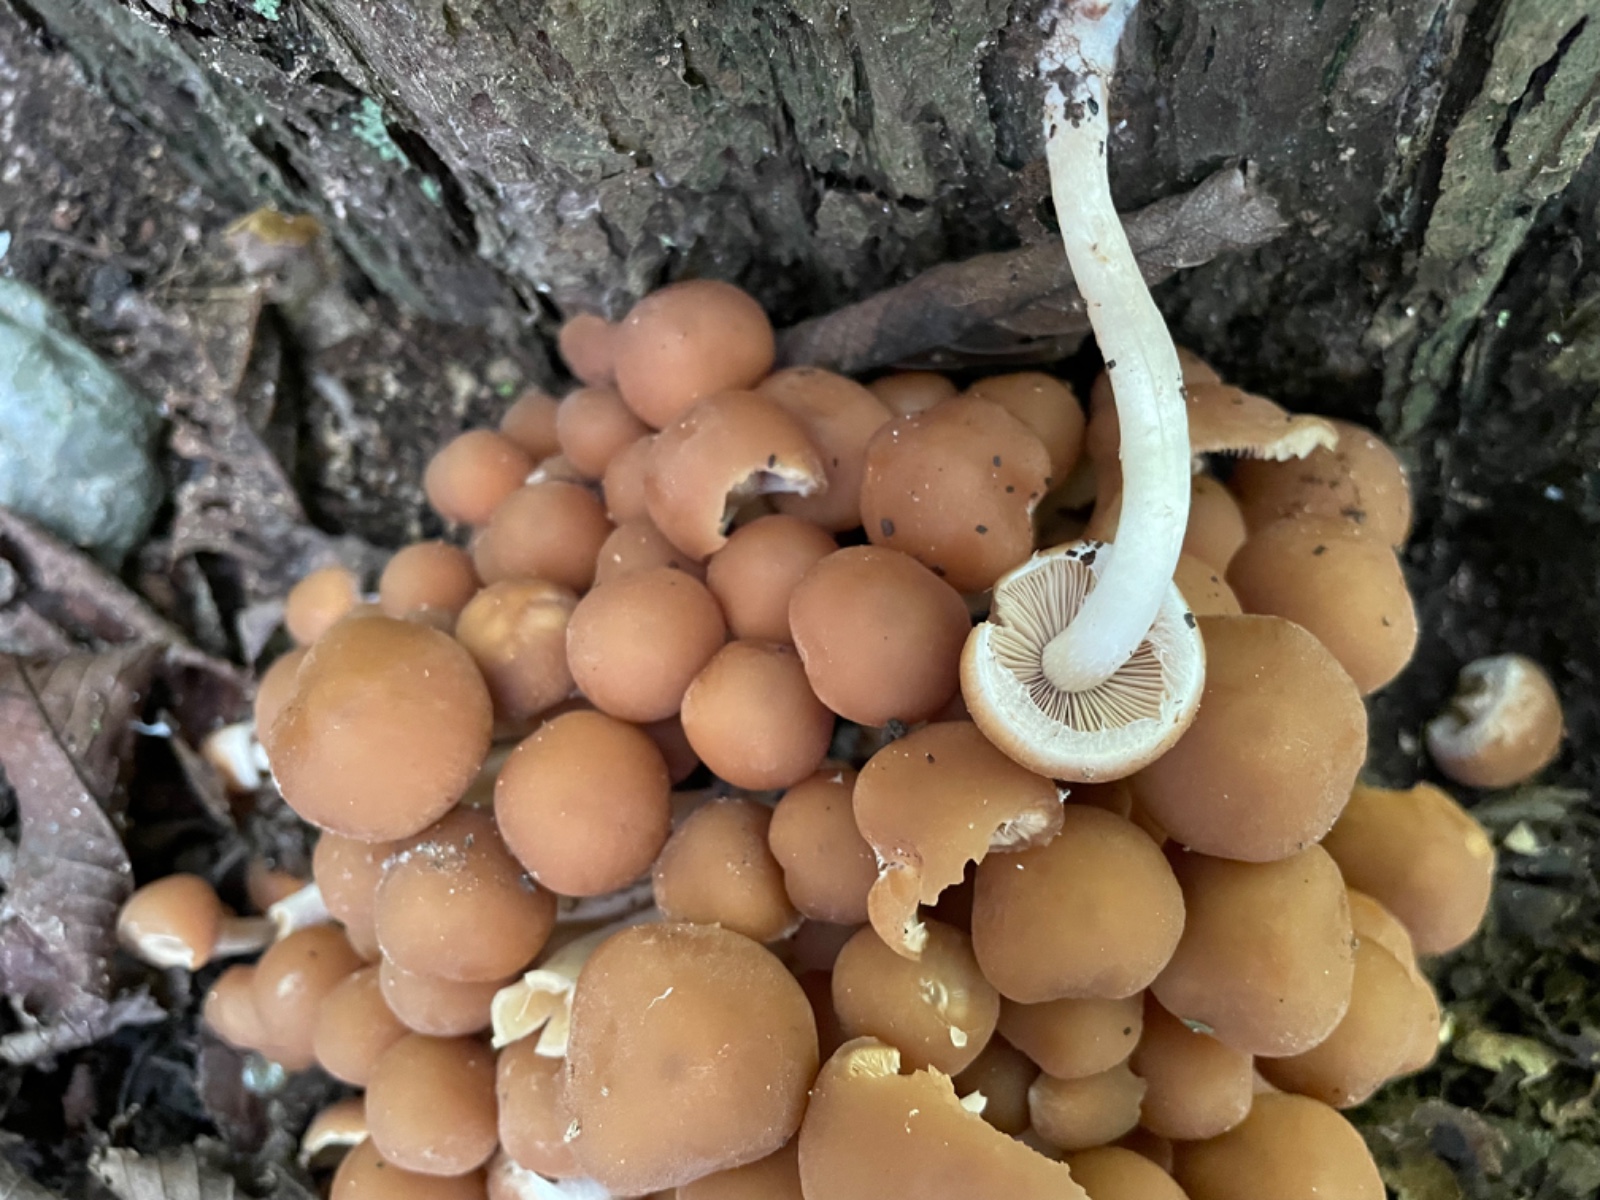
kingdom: Fungi
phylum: Basidiomycota
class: Agaricomycetes
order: Agaricales
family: Psathyrellaceae
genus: Psathyrella
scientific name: Psathyrella piluliformis
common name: lysstokket mørkhat
